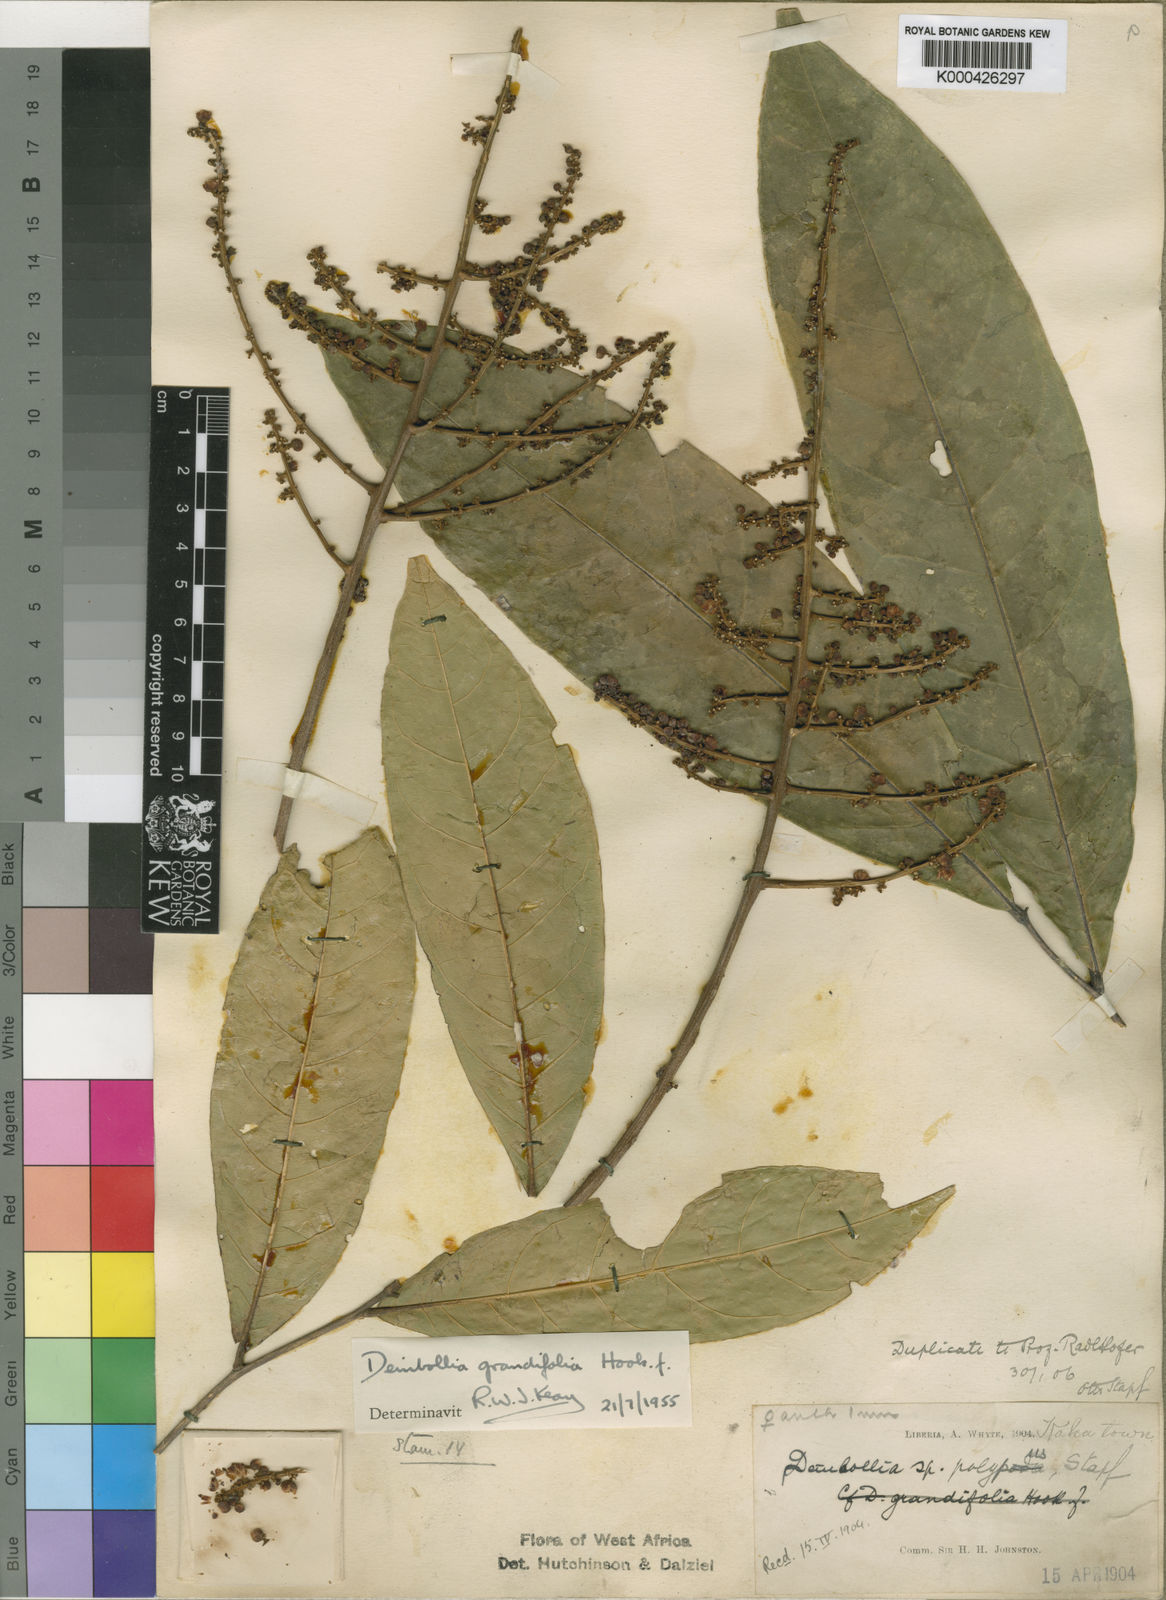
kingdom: Plantae
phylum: Tracheophyta
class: Magnoliopsida
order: Sapindales
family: Sapindaceae
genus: Deinbollia
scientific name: Deinbollia grandifolia
